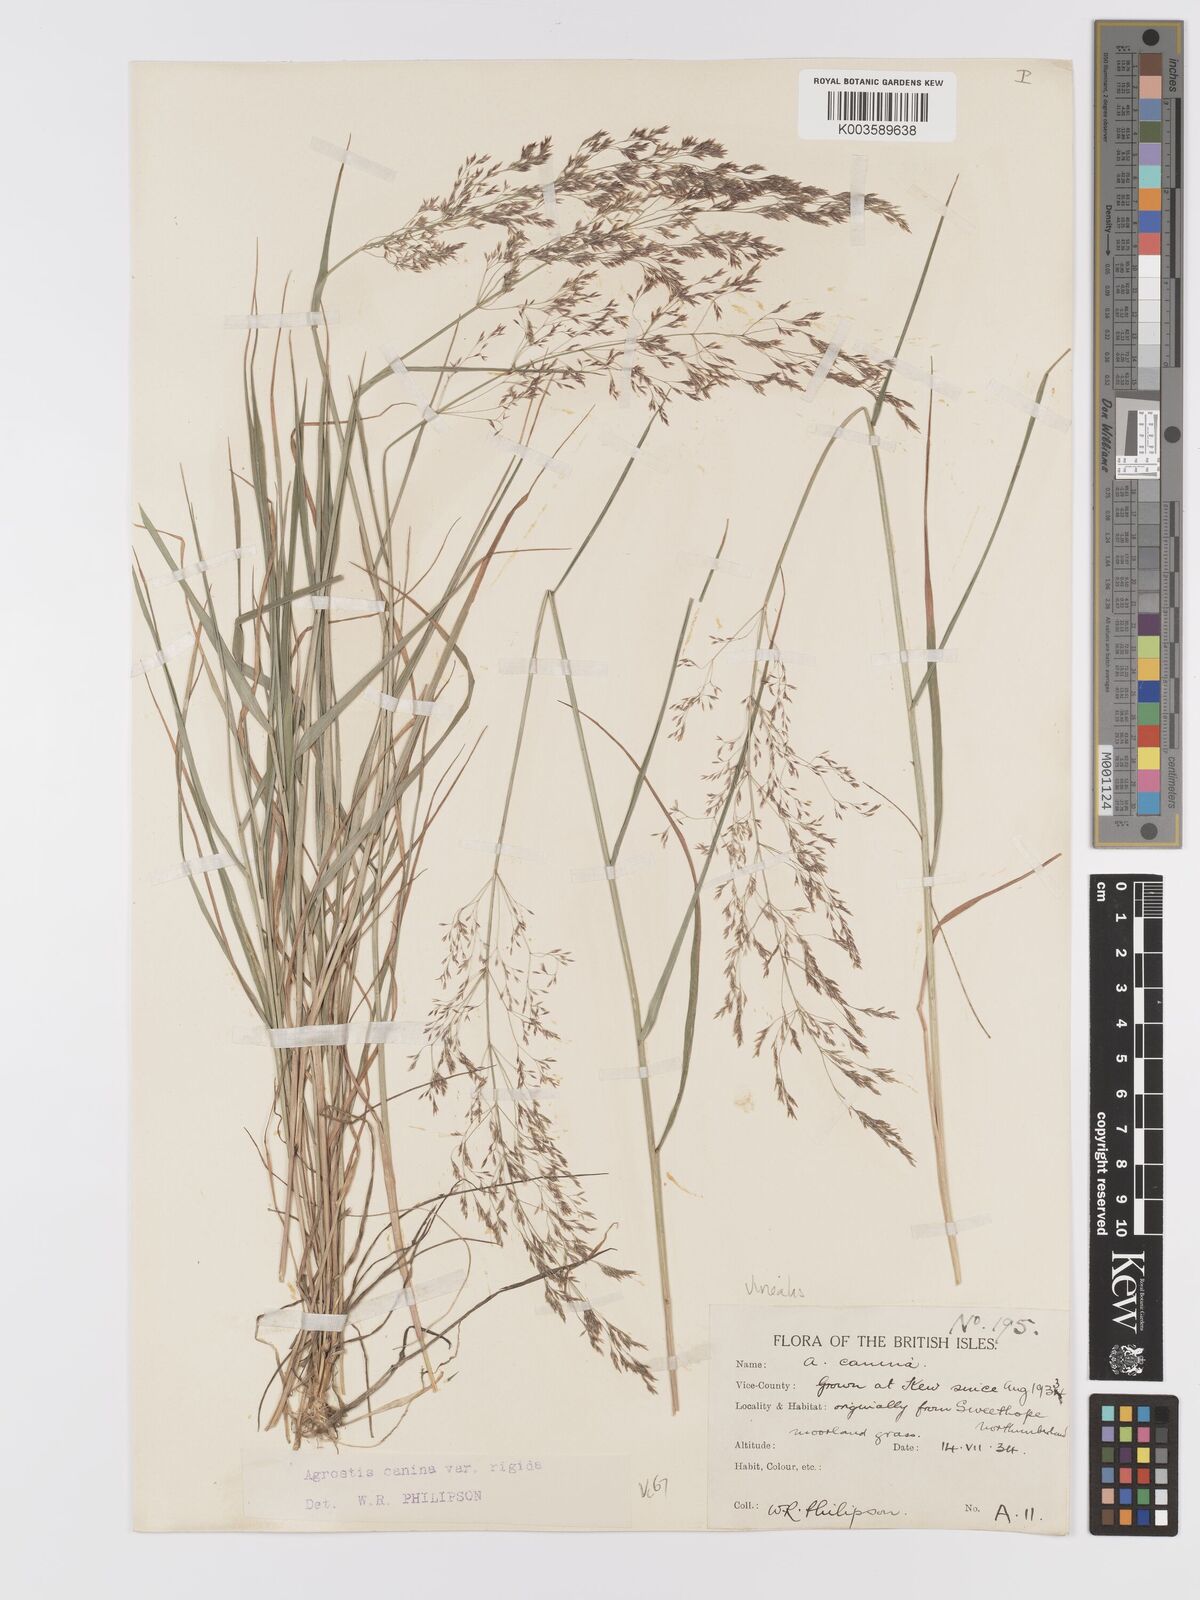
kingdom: Plantae
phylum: Tracheophyta
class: Liliopsida
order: Poales
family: Poaceae
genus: Agrostis
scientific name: Agrostis
